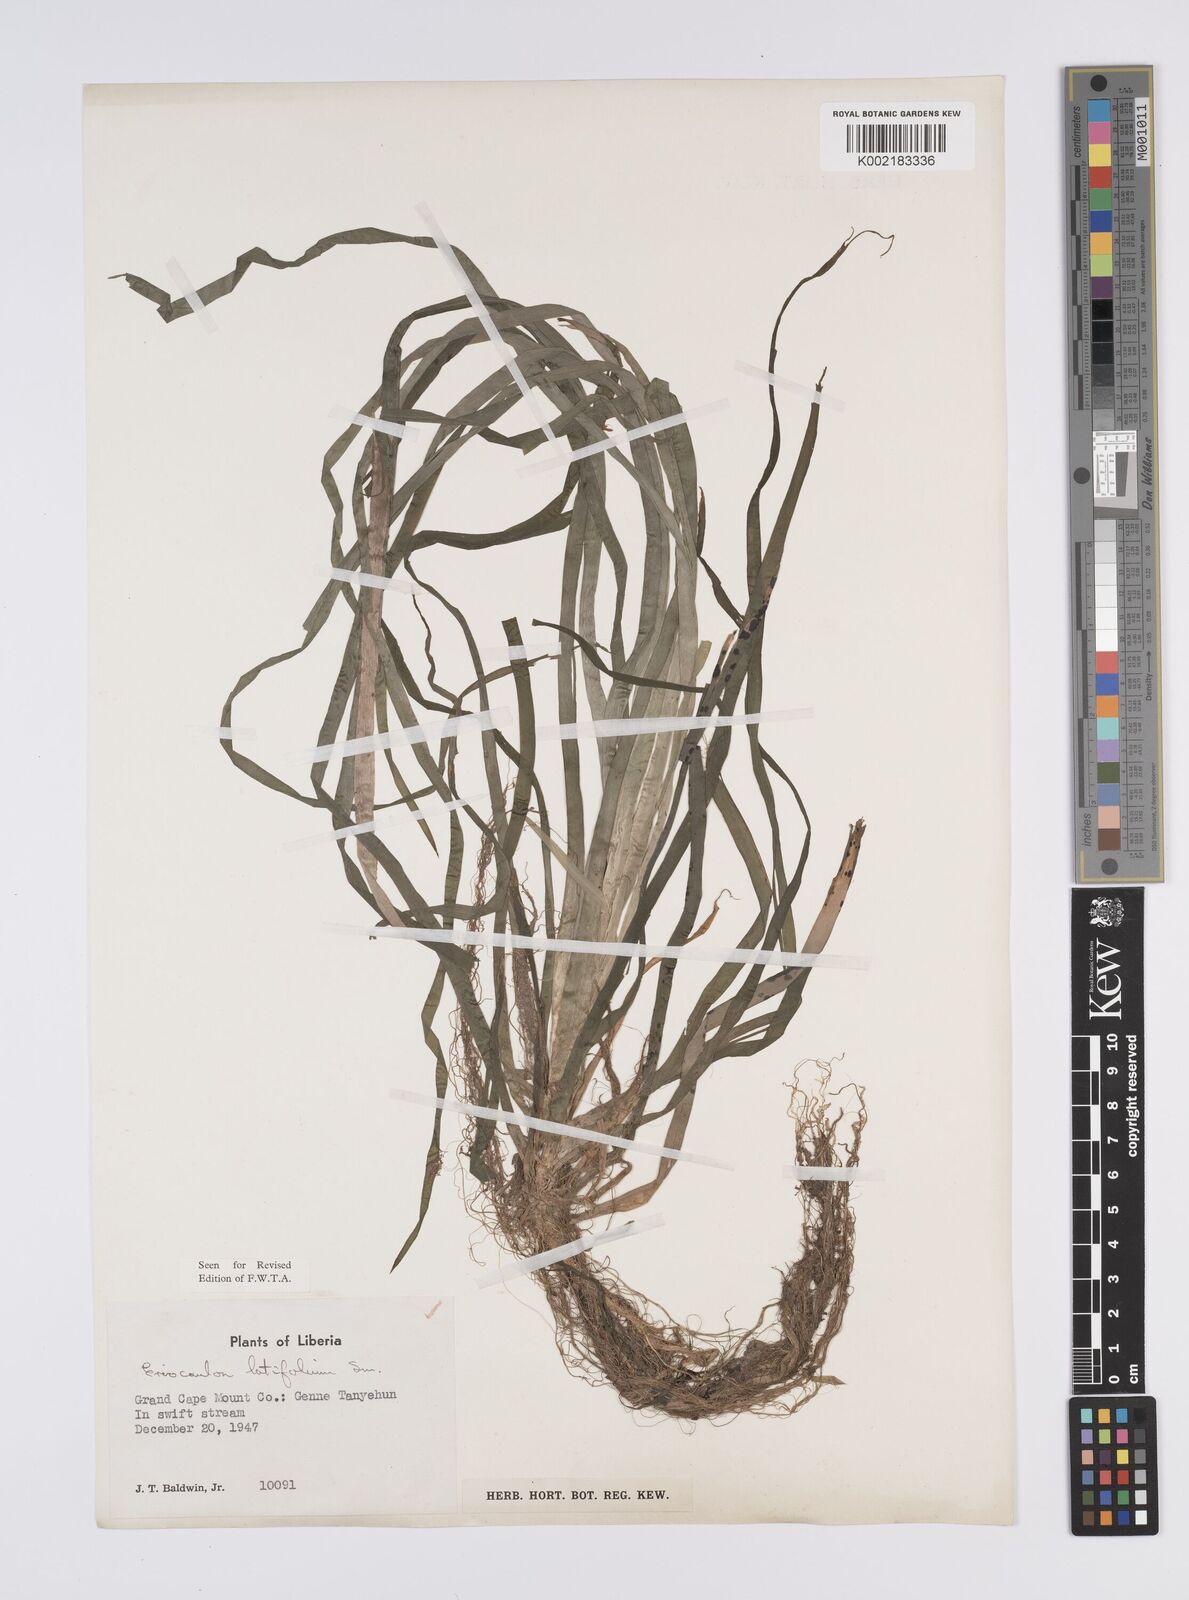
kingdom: Plantae
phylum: Tracheophyta
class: Liliopsida
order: Poales
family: Eriocaulaceae
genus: Eriocaulon
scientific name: Eriocaulon latifolium
